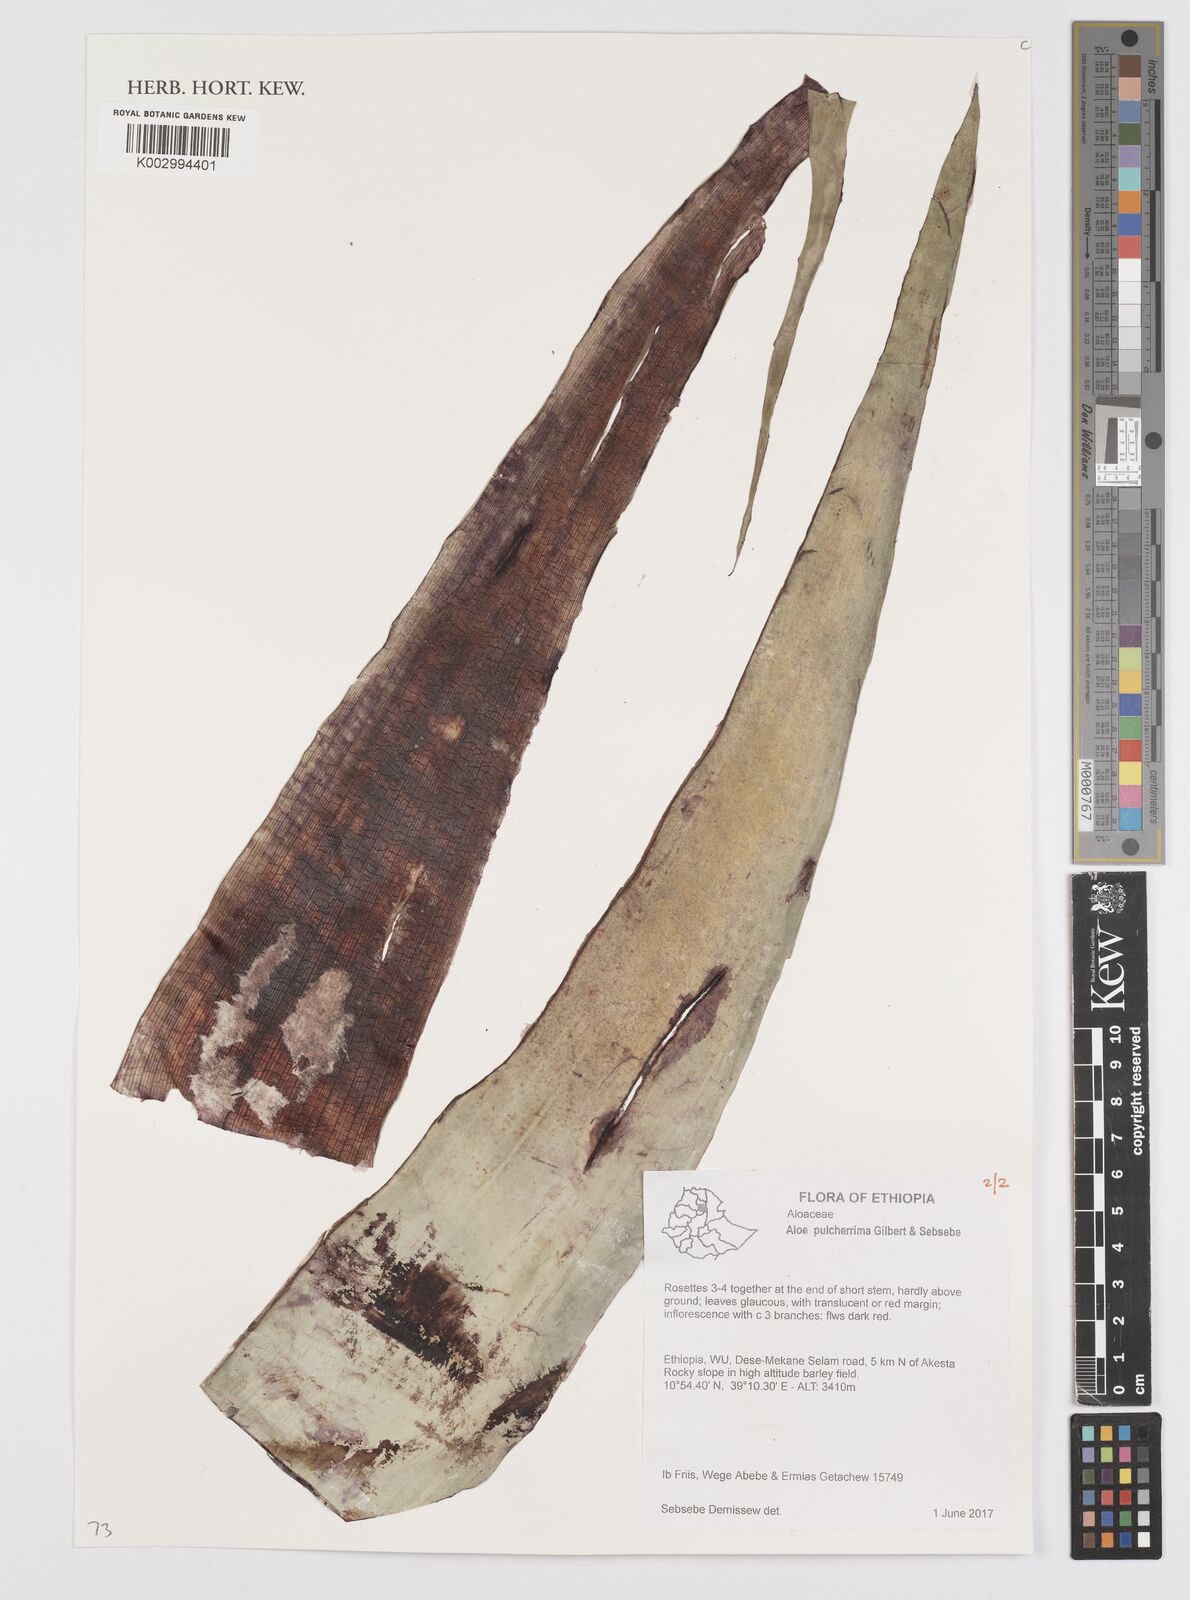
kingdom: Plantae
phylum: Tracheophyta
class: Liliopsida
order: Asparagales
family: Asphodelaceae
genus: Aloe
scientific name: Aloe pulcherrima
